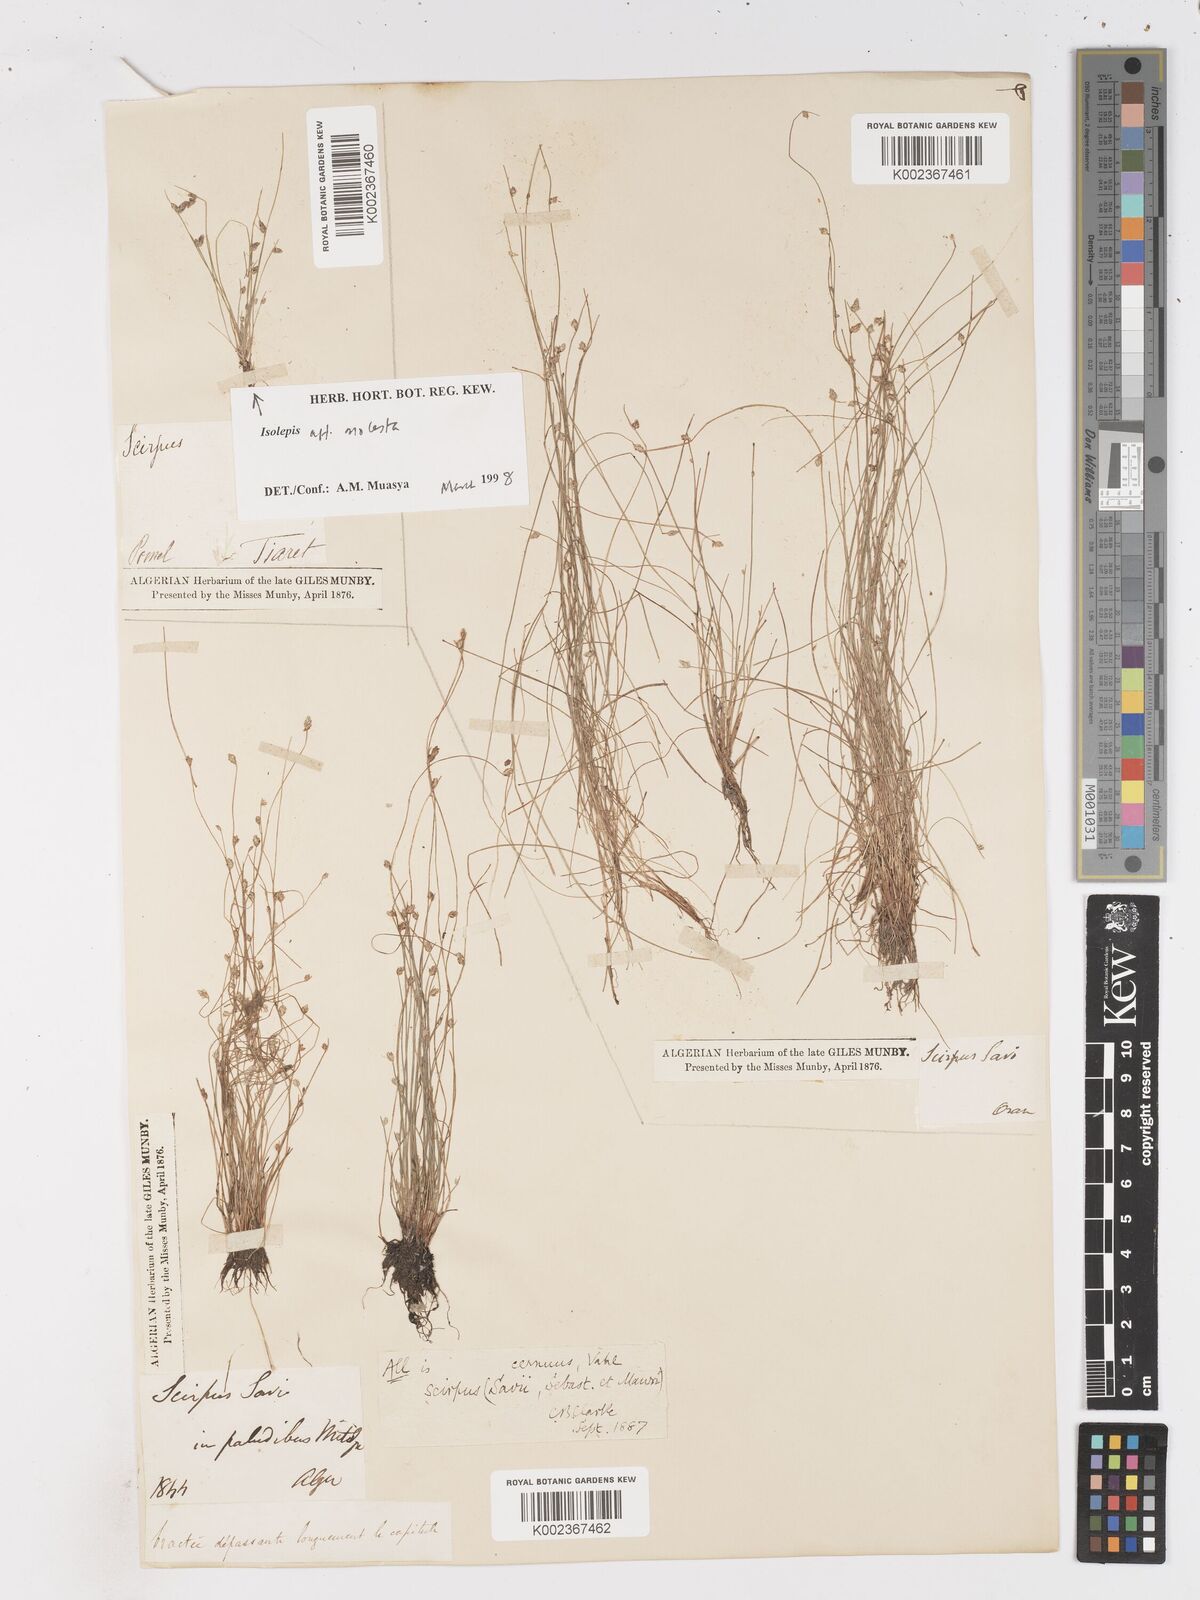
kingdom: Plantae
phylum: Tracheophyta
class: Liliopsida
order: Poales
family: Cyperaceae
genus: Isolepis
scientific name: Isolepis cernua
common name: Slender club-rush
